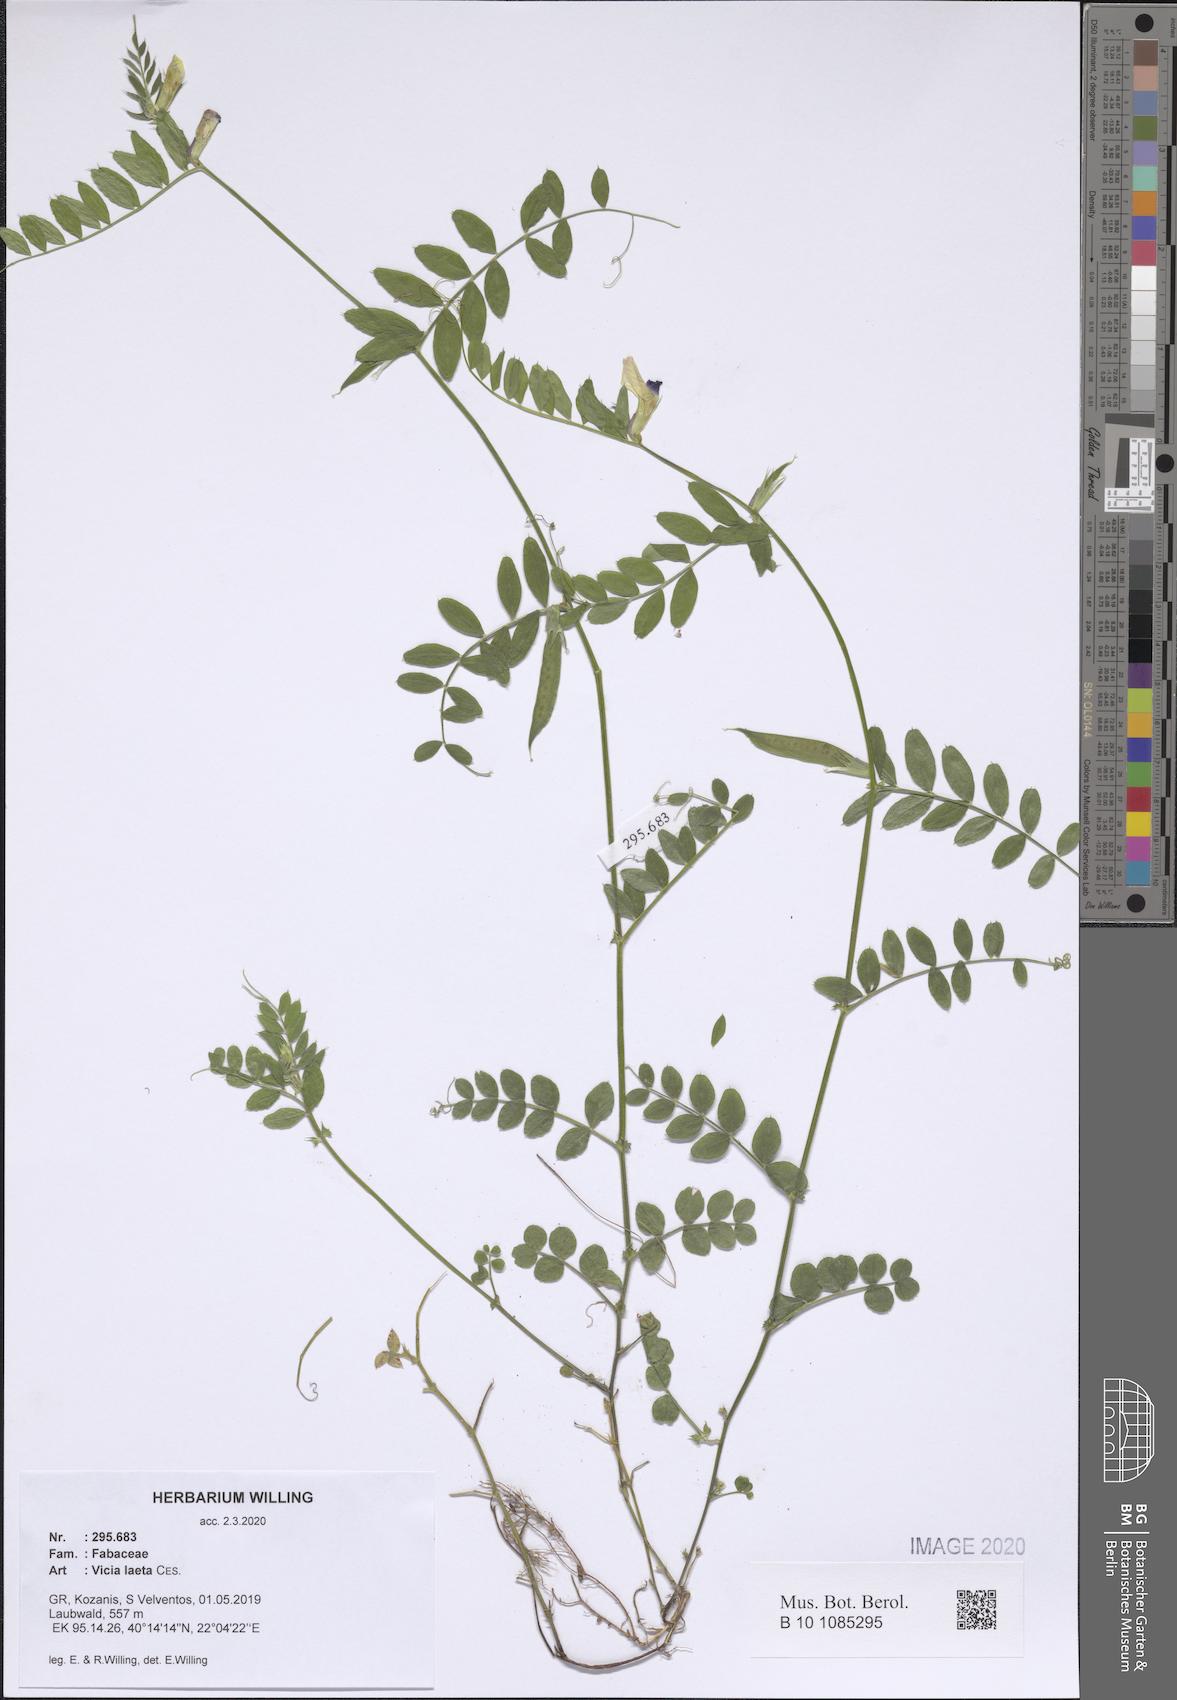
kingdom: Plantae
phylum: Tracheophyta
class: Magnoliopsida
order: Fabales
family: Fabaceae
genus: Vicia
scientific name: Vicia laeta
